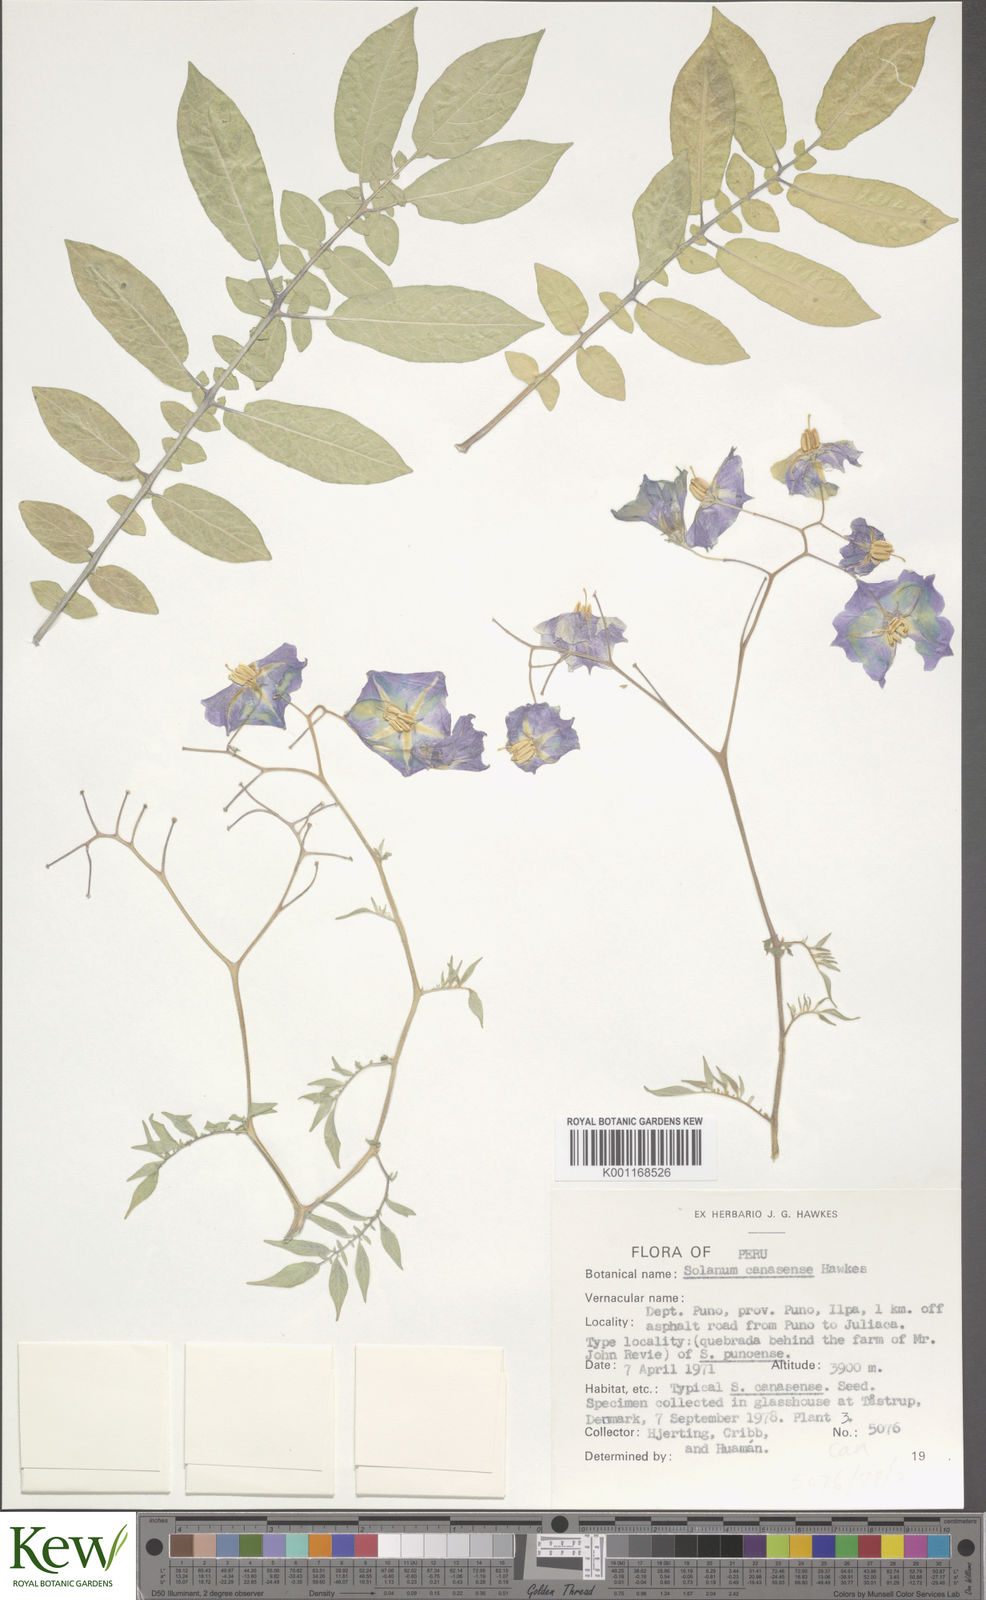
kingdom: Plantae
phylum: Tracheophyta
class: Magnoliopsida
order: Solanales
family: Solanaceae
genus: Solanum
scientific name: Solanum candolleanum
